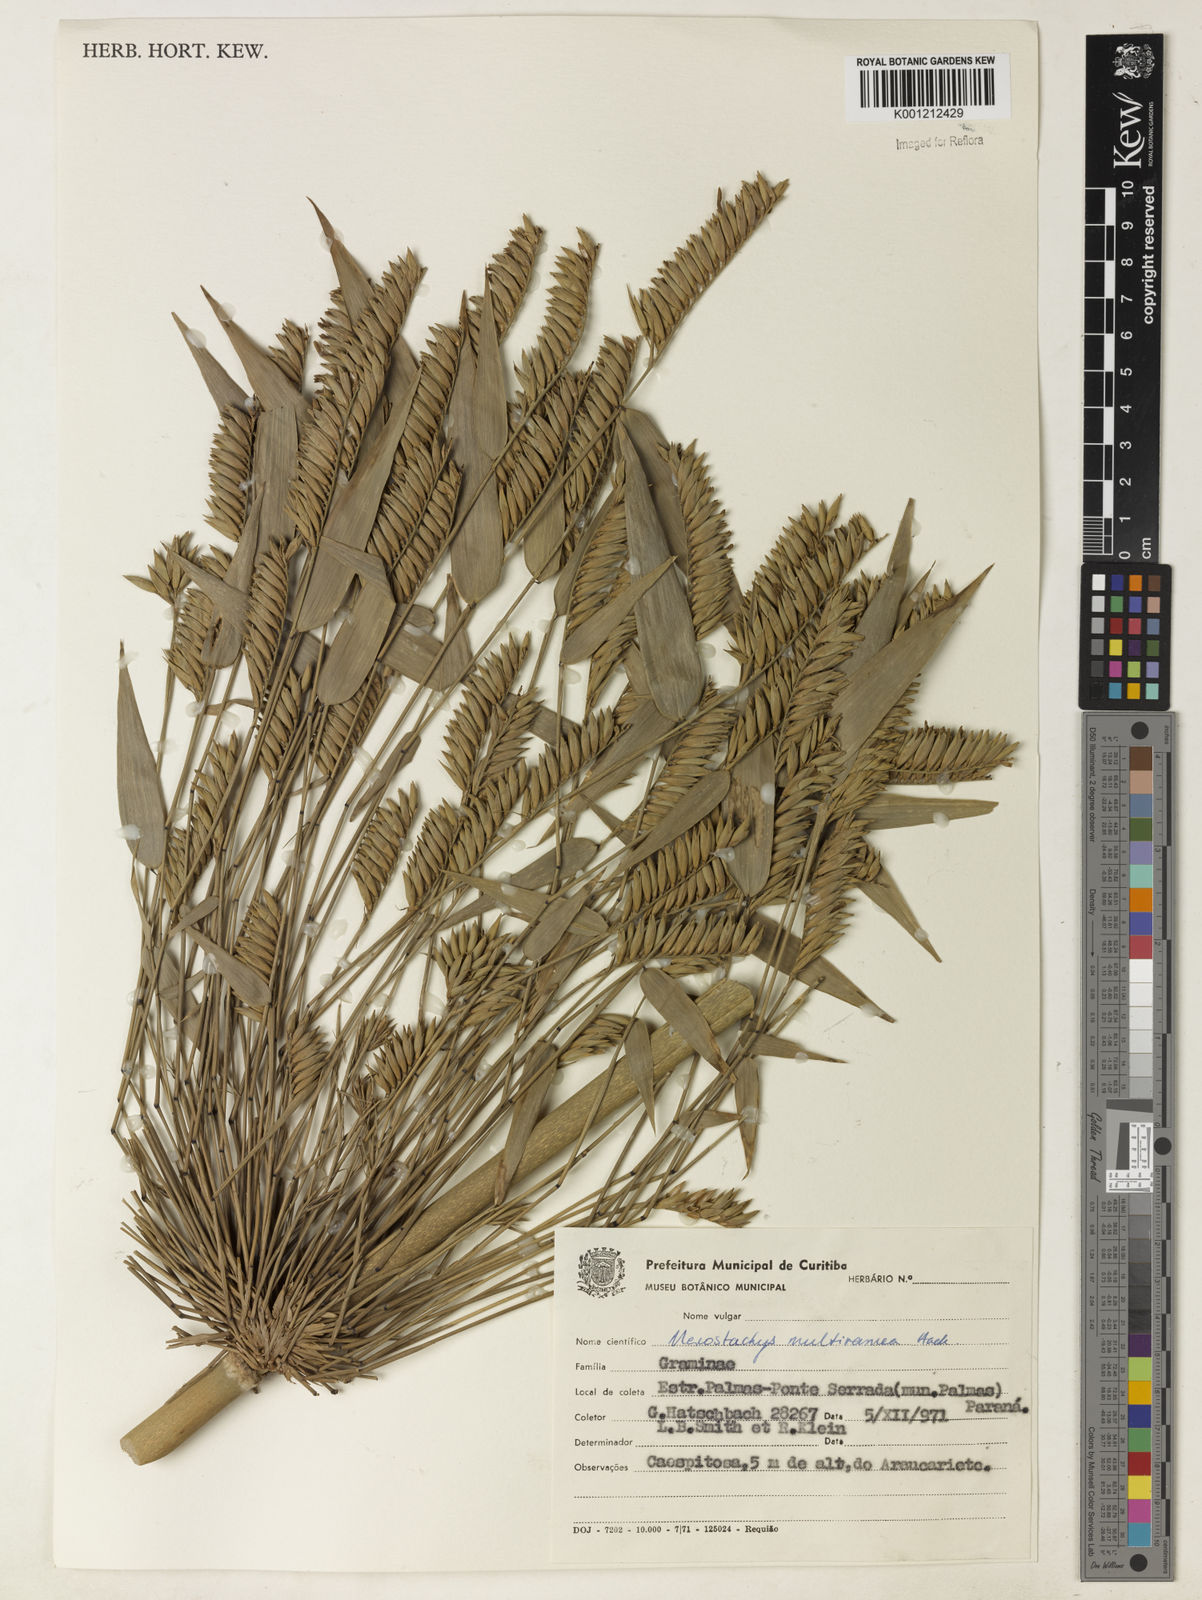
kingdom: Plantae
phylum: Tracheophyta
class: Liliopsida
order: Poales
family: Poaceae
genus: Merostachys
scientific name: Merostachys multiramea
